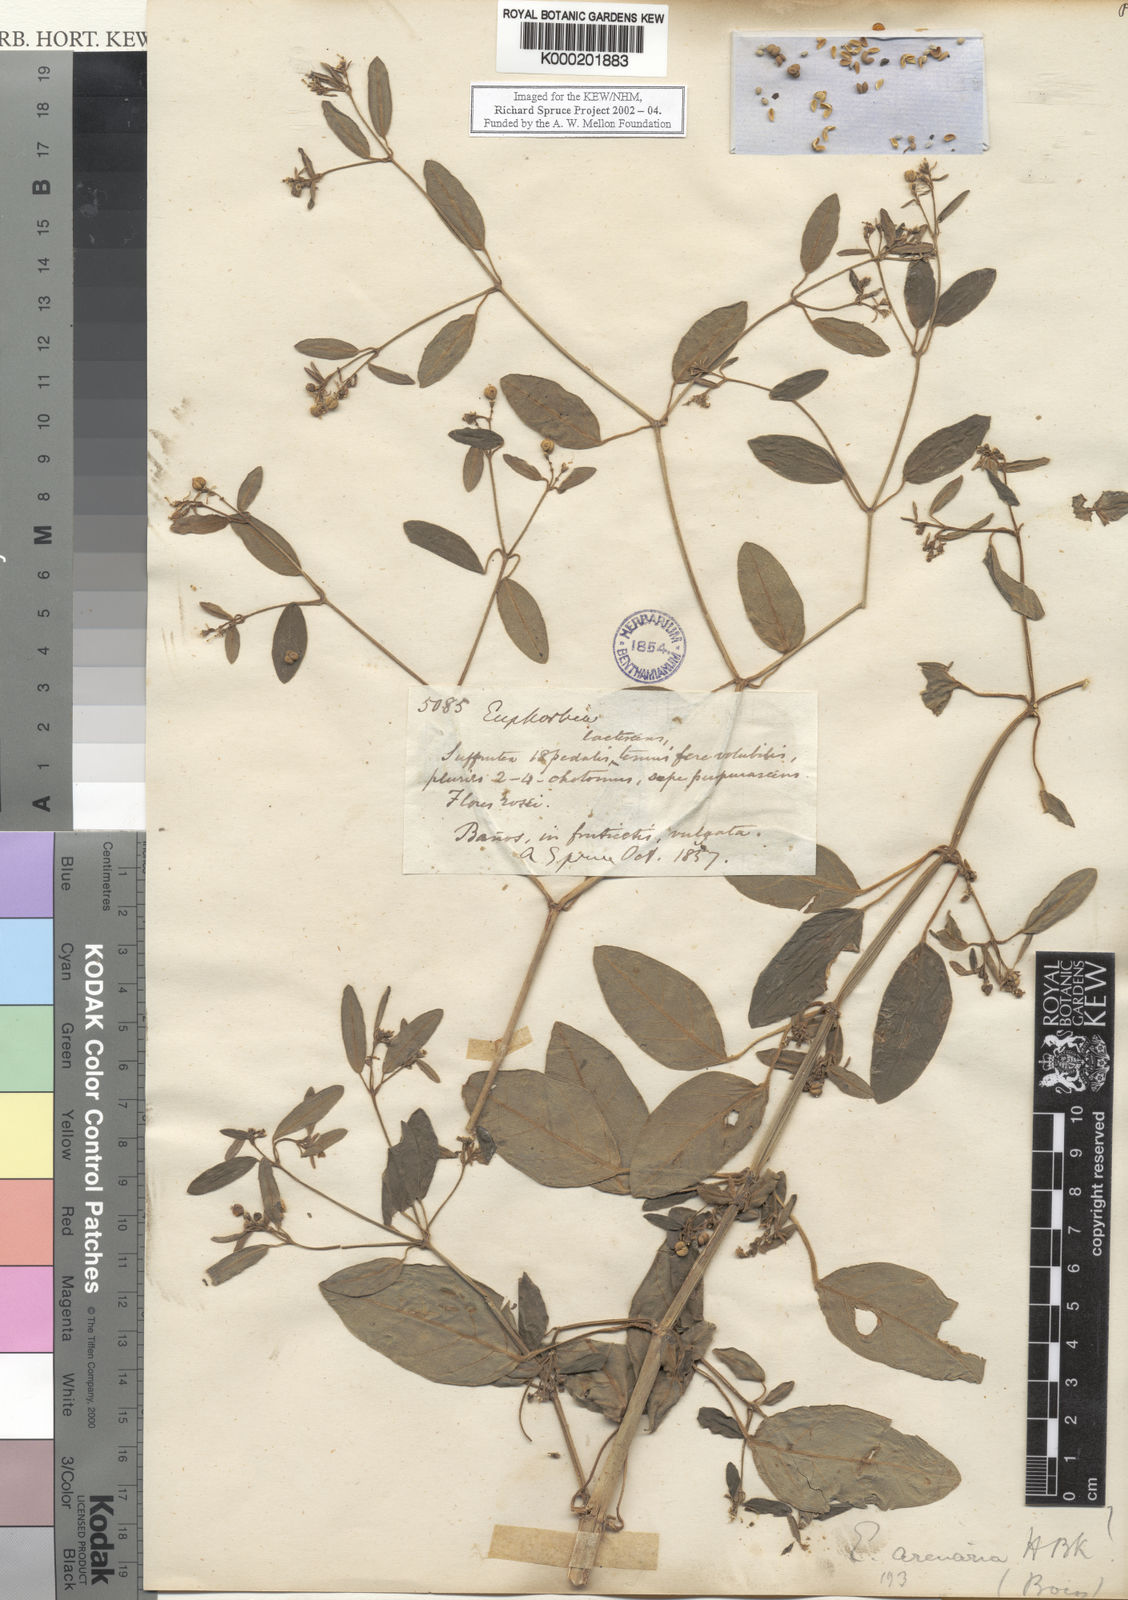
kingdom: Plantae
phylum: Tracheophyta
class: Magnoliopsida
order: Malpighiales
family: Euphorbiaceae
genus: Euphorbia
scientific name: Euphorbia arenaria
